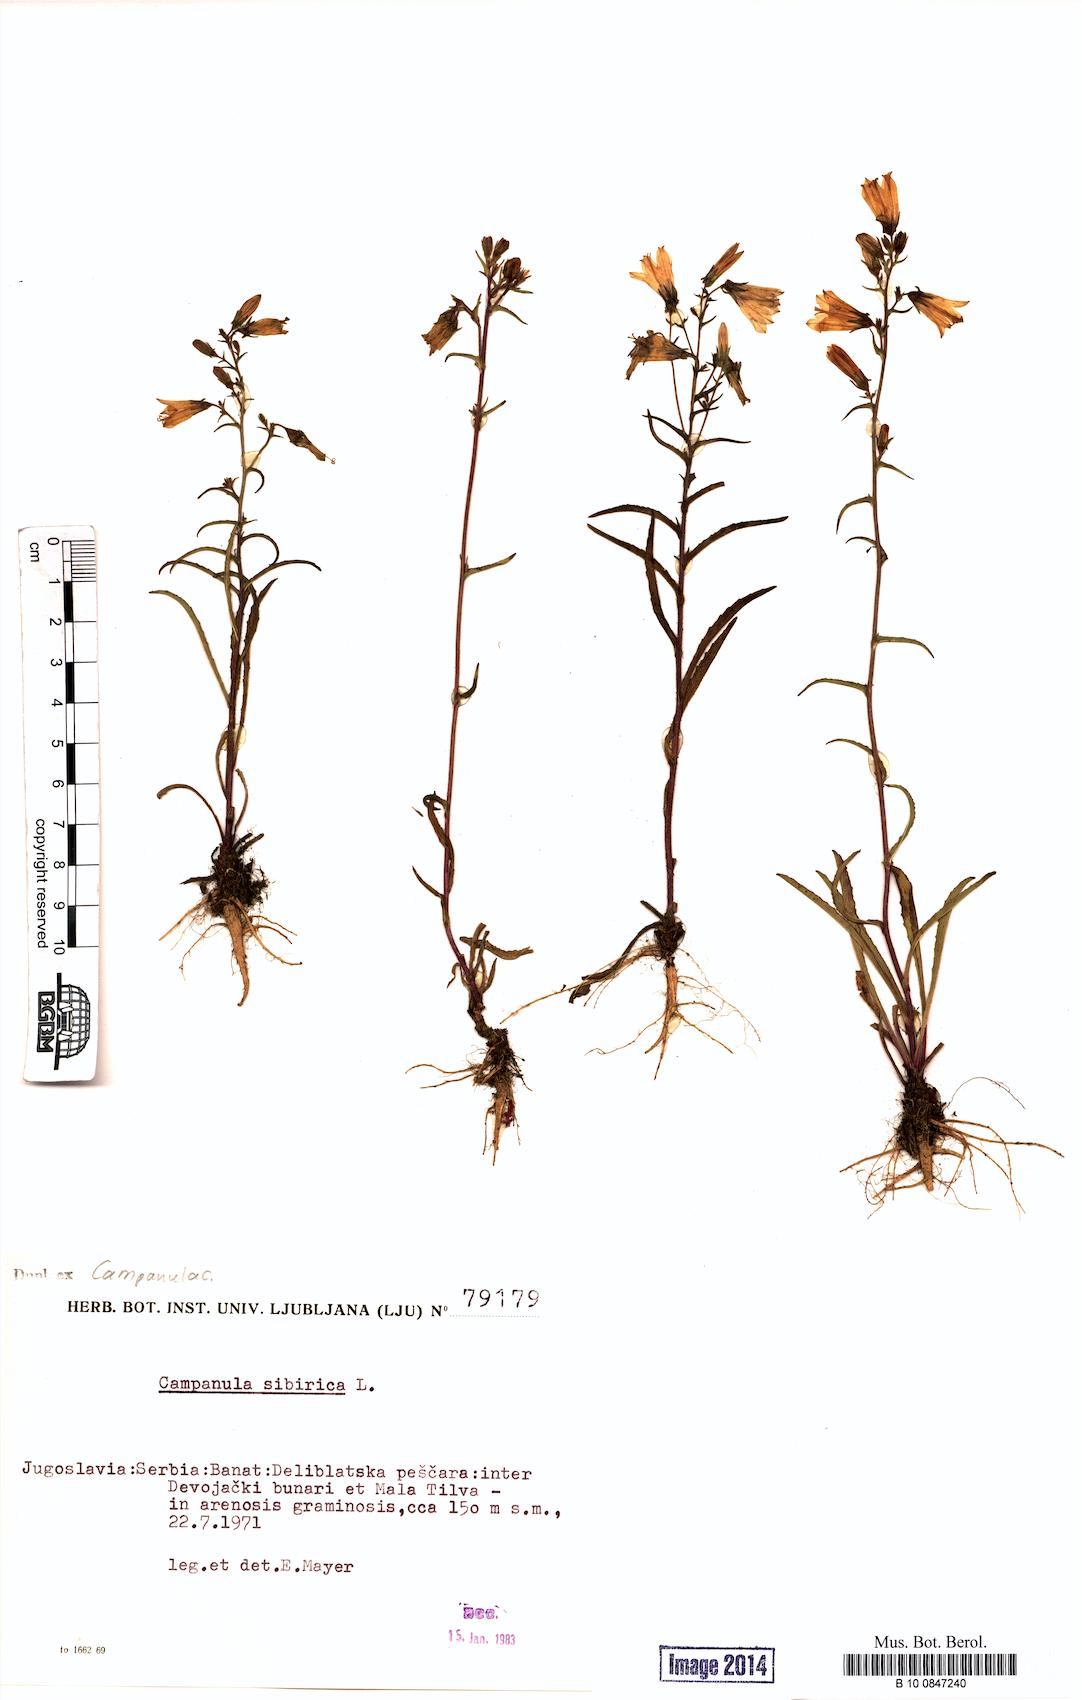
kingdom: Plantae
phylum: Tracheophyta
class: Magnoliopsida
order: Asterales
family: Campanulaceae
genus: Campanula
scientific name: Campanula sibirica
